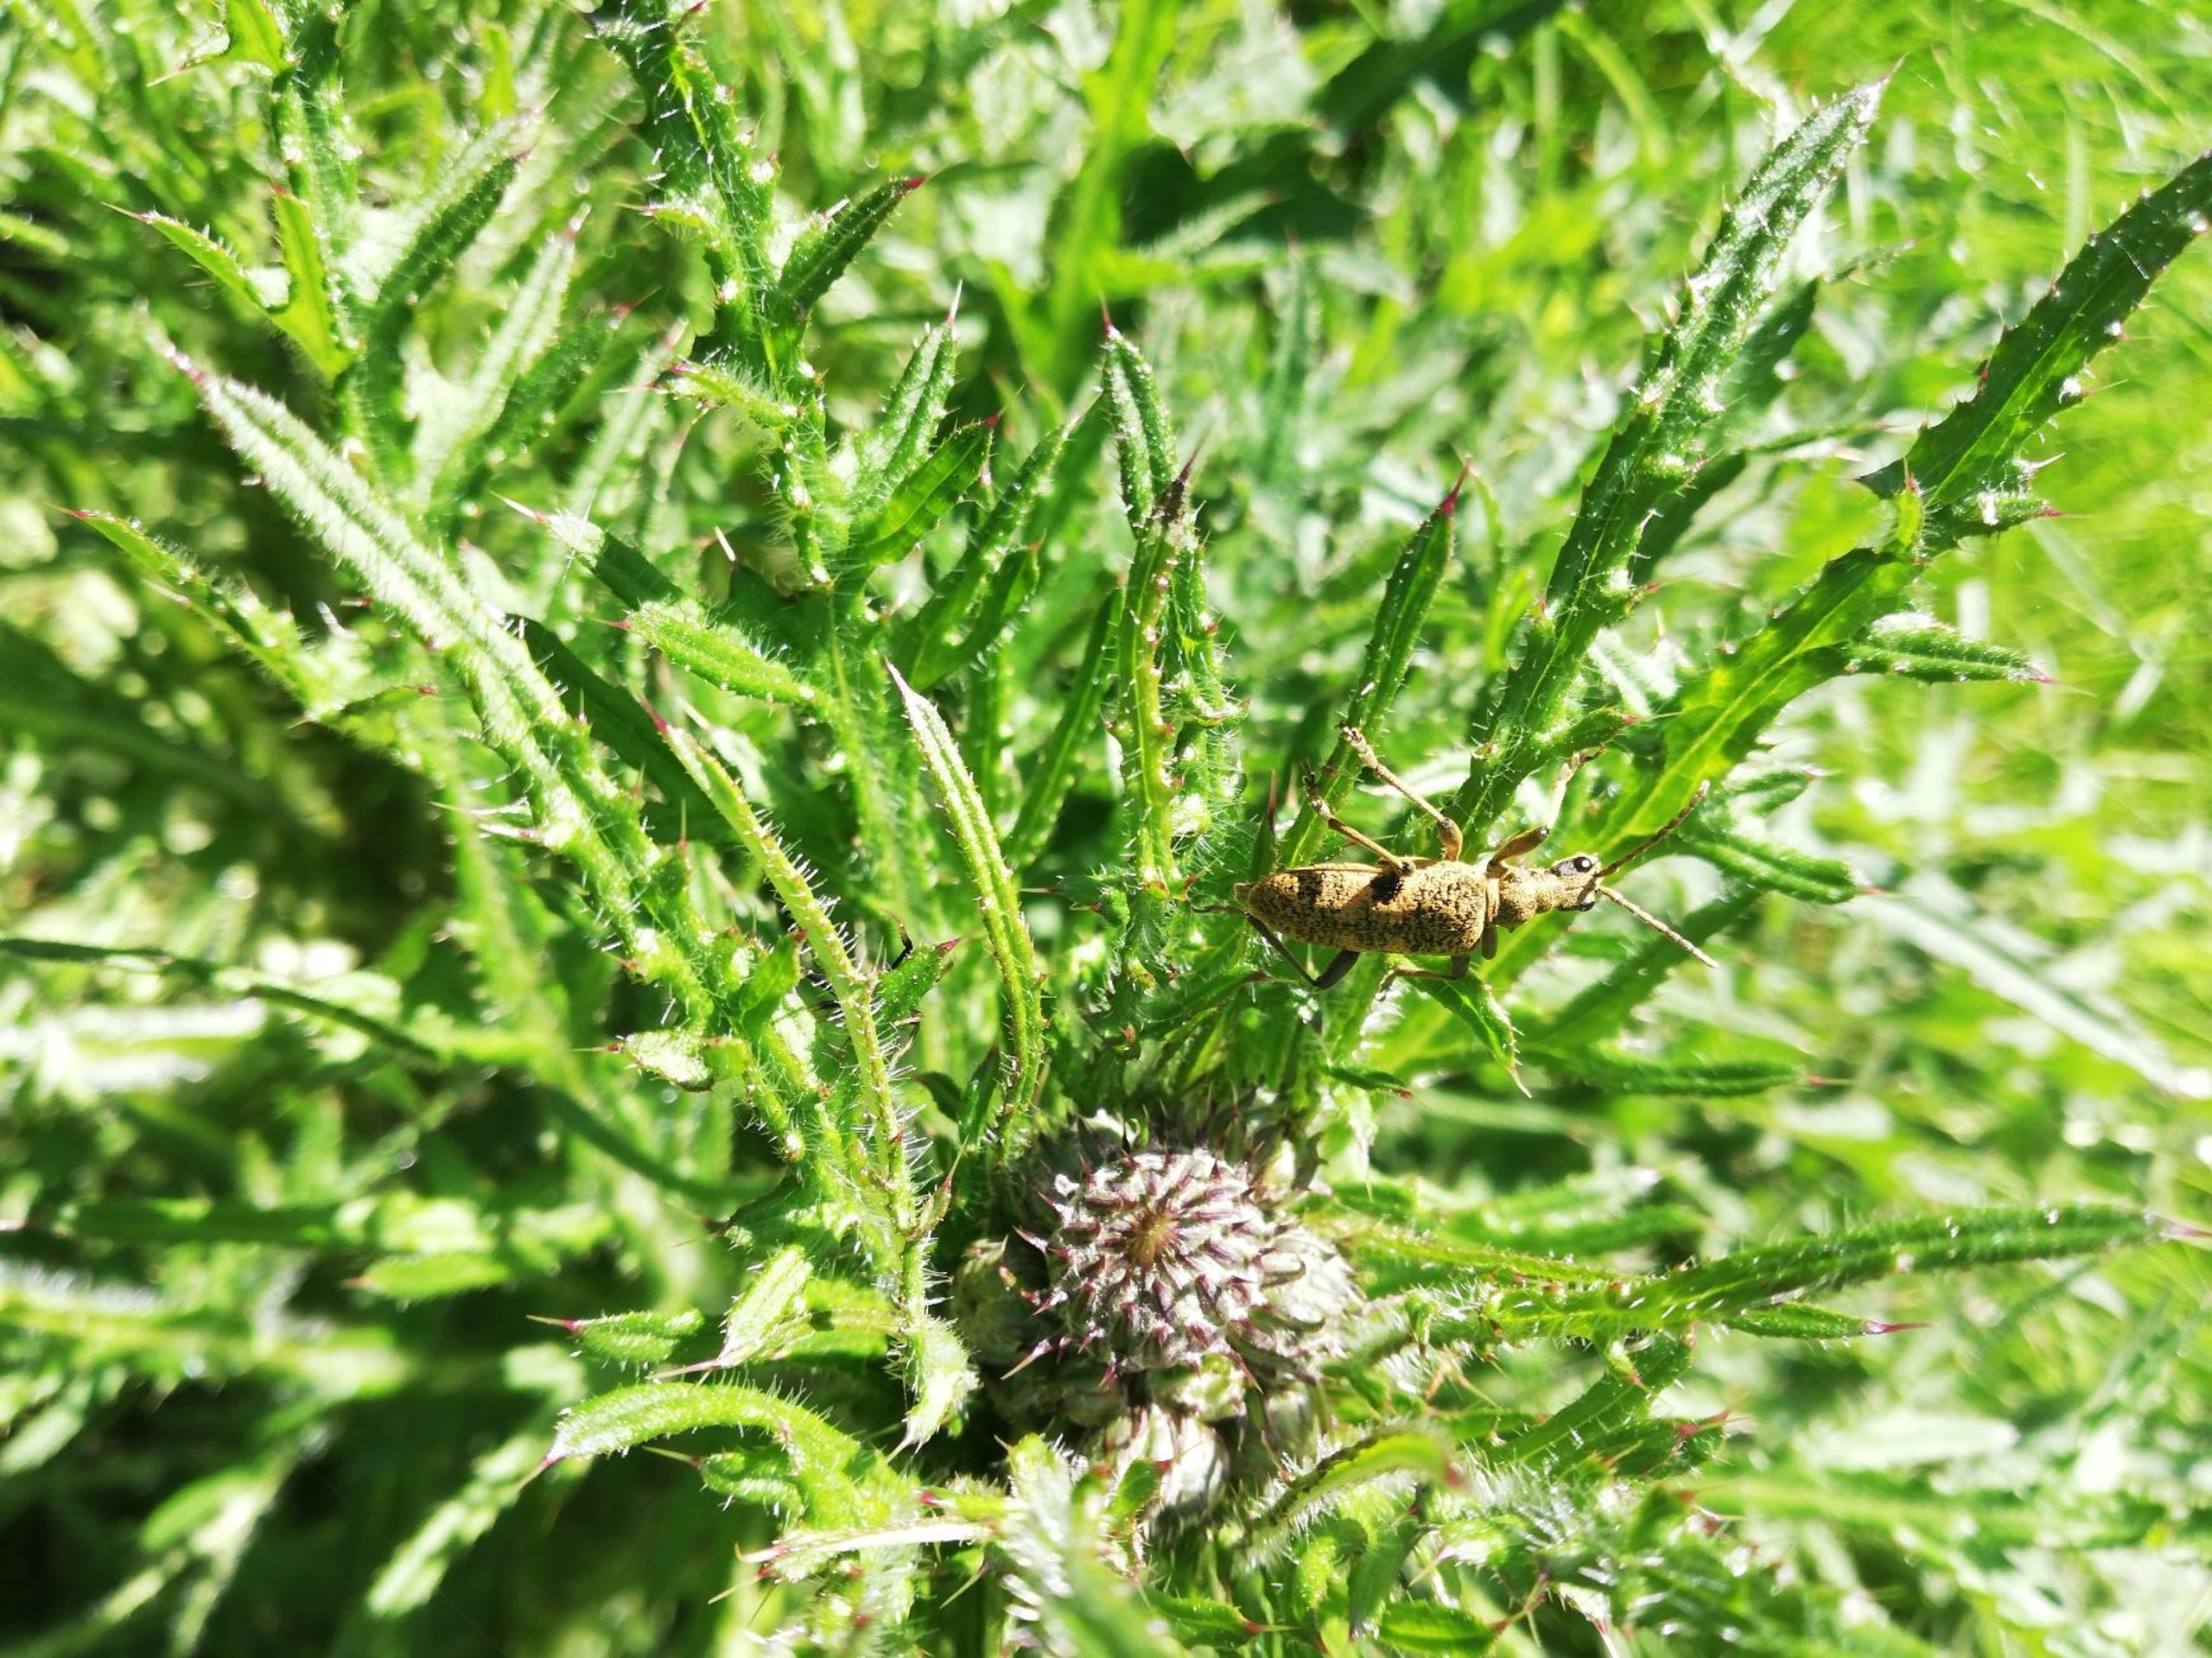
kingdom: Animalia
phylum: Arthropoda
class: Insecta
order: Coleoptera
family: Cerambycidae
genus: Rhagium
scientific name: Rhagium mordax
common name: Blankplettet tandbuk
